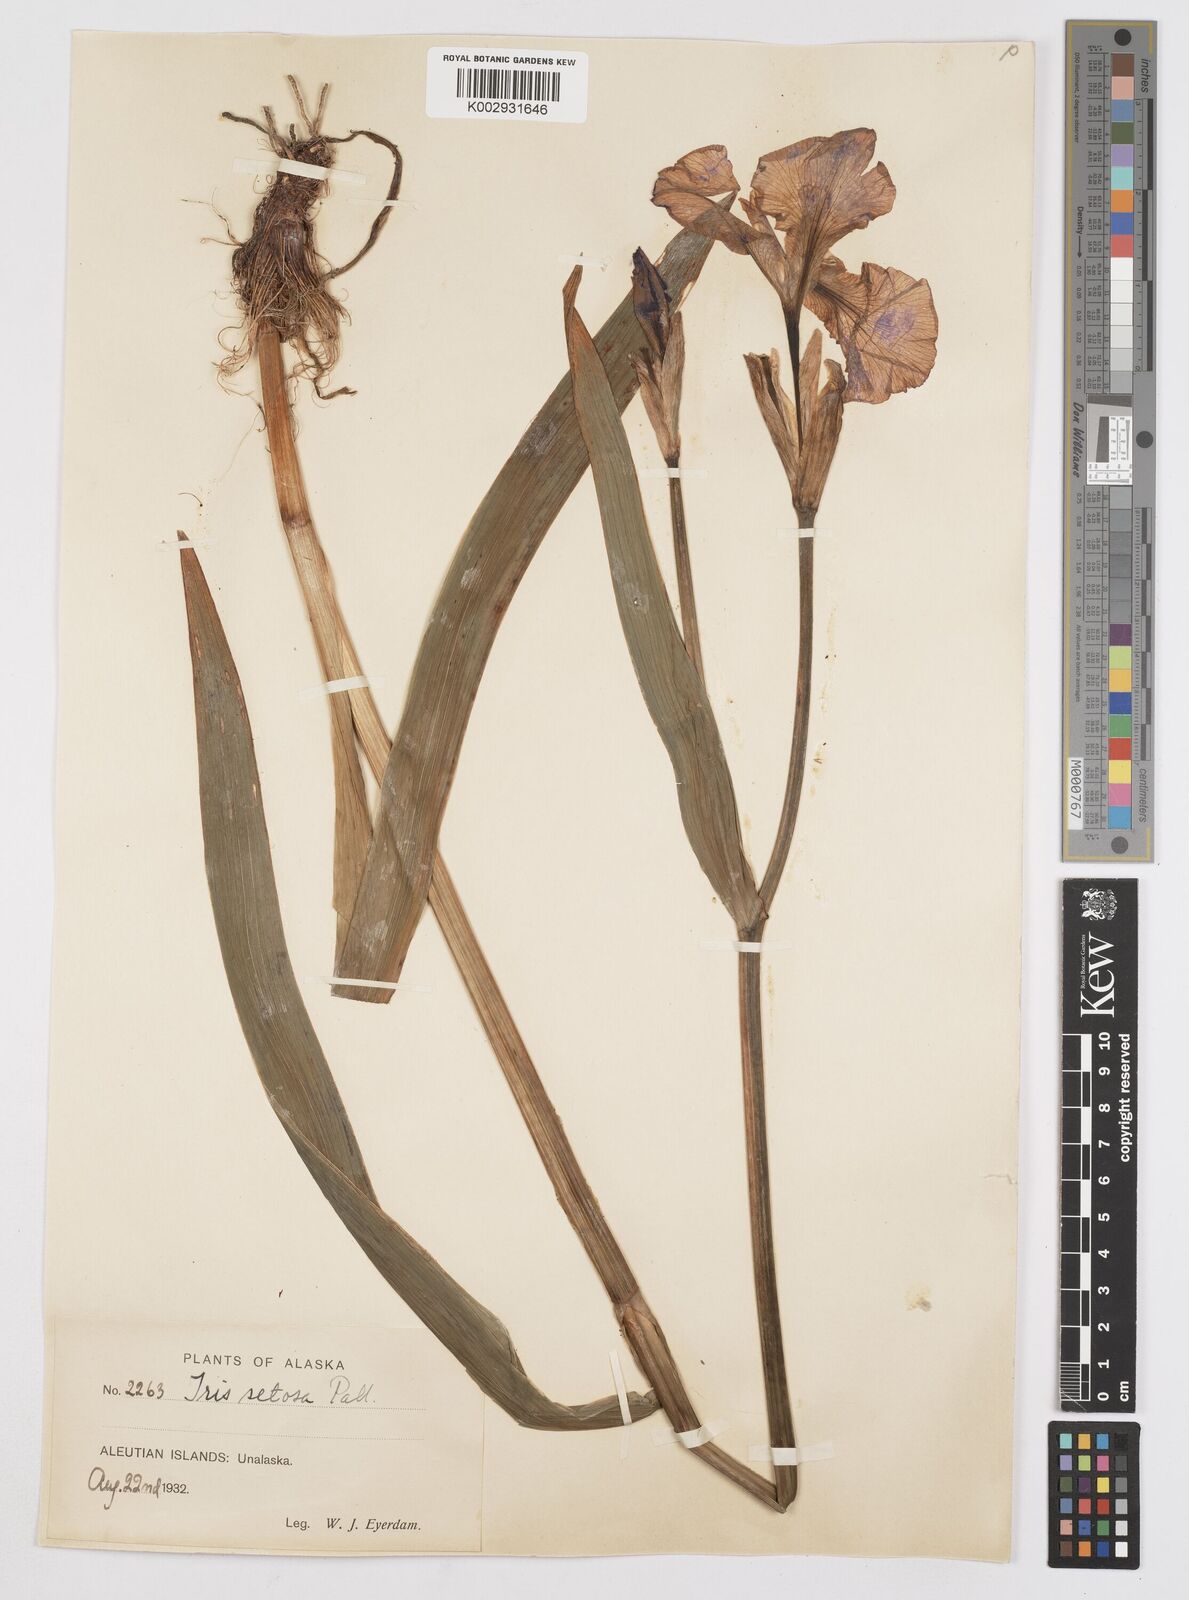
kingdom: Plantae
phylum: Tracheophyta
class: Liliopsida
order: Asparagales
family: Iridaceae
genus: Iris
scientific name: Iris setosa
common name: Arctic blue flag
